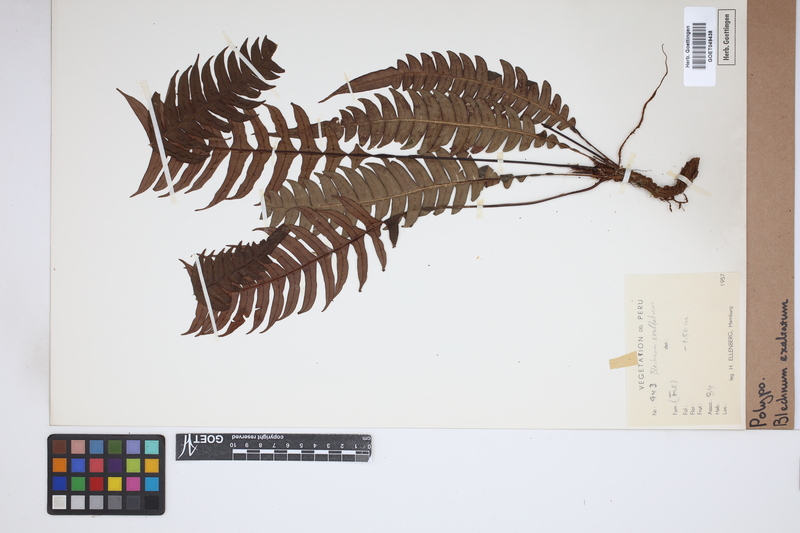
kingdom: Plantae
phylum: Tracheophyta
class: Polypodiopsida
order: Polypodiales
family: Blechnaceae
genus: Austroblechnum
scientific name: Austroblechnum divergens
